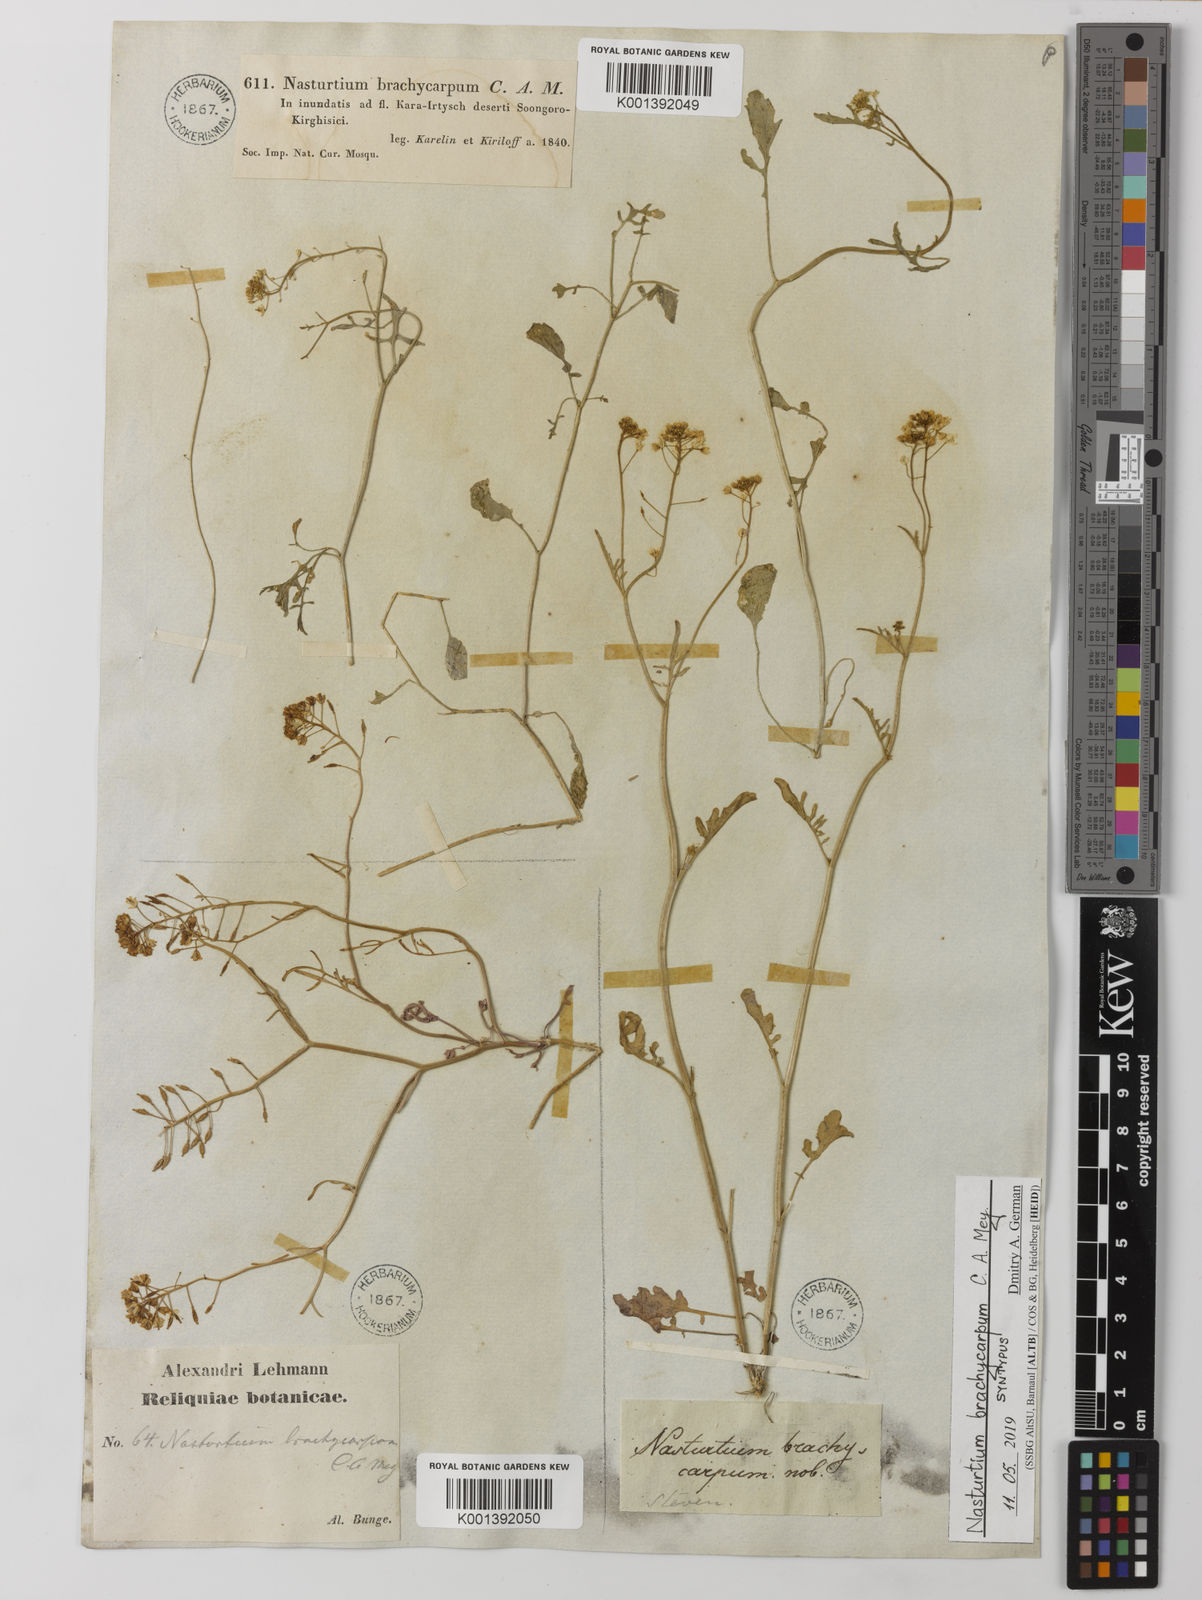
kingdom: Plantae
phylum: Tracheophyta
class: Magnoliopsida
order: Brassicales
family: Brassicaceae
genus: Rorippa
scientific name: Rorippa brachycarpa
